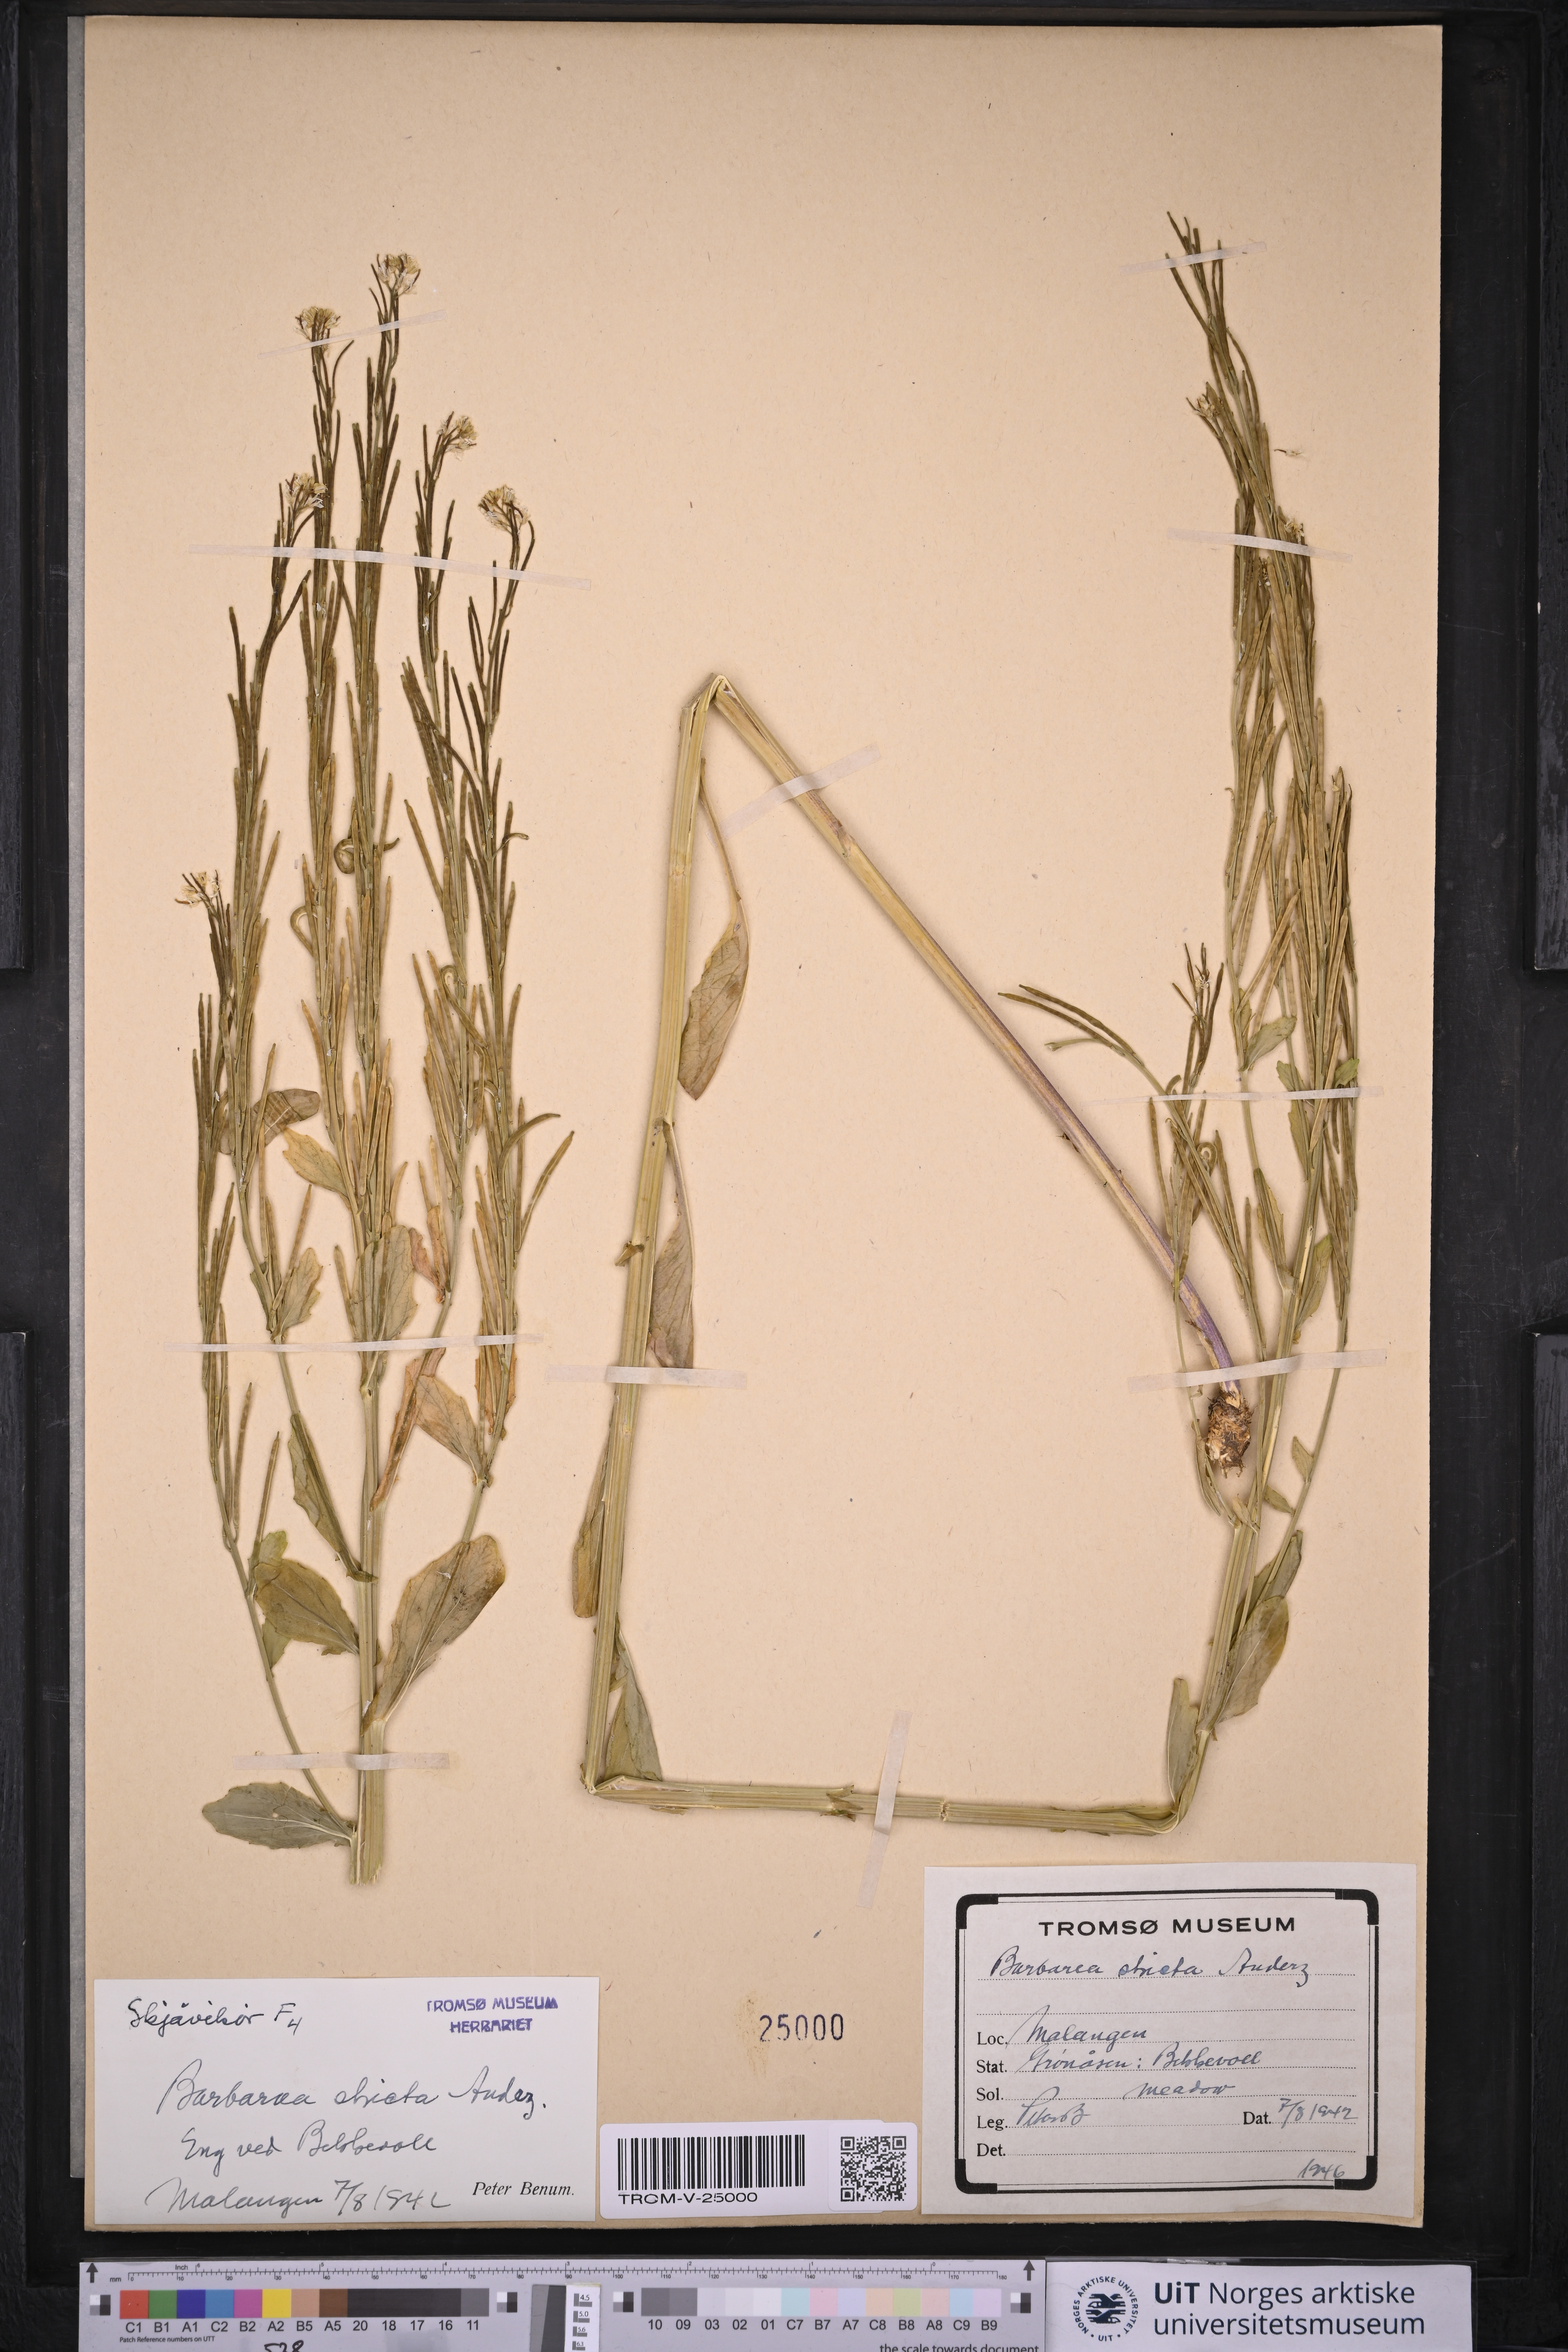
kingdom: Plantae
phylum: Tracheophyta
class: Magnoliopsida
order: Brassicales
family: Brassicaceae
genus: Barbarea
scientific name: Barbarea stricta
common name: Small-flowered winter-cress
